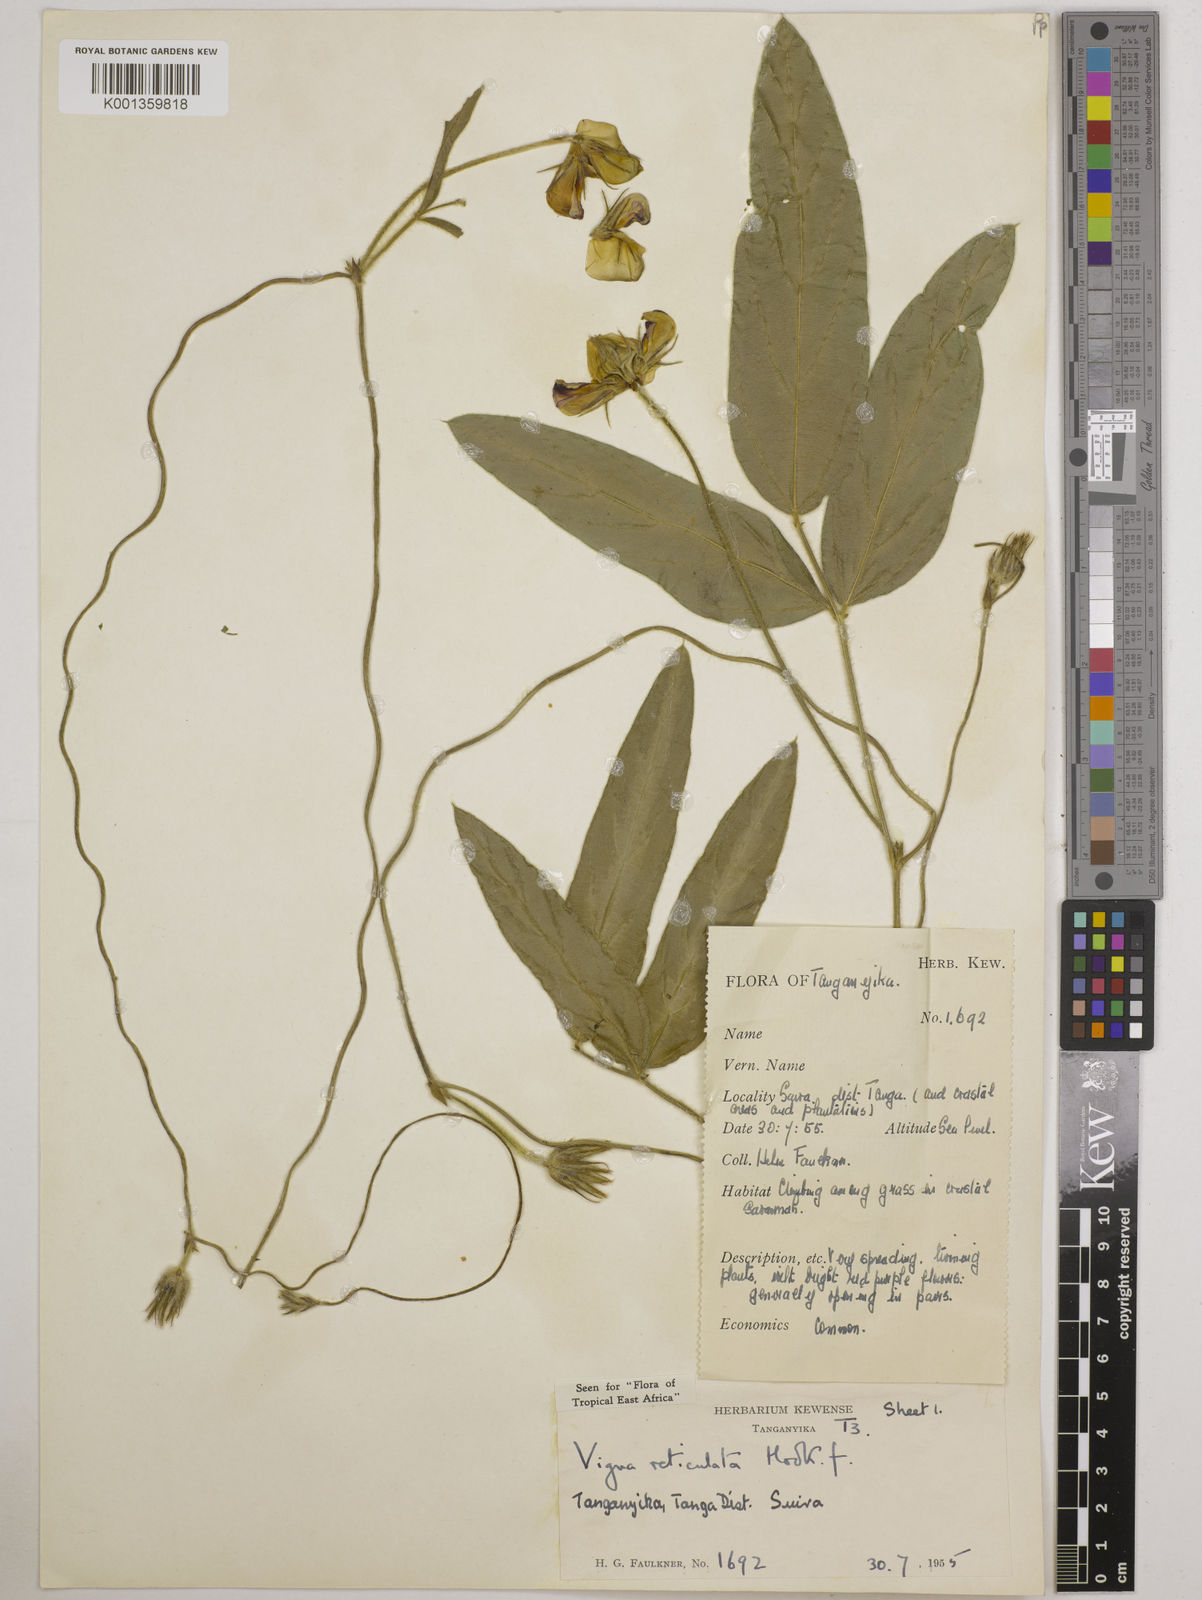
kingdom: Plantae
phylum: Tracheophyta
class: Magnoliopsida
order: Fabales
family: Fabaceae
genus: Vigna
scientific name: Vigna reticulata
